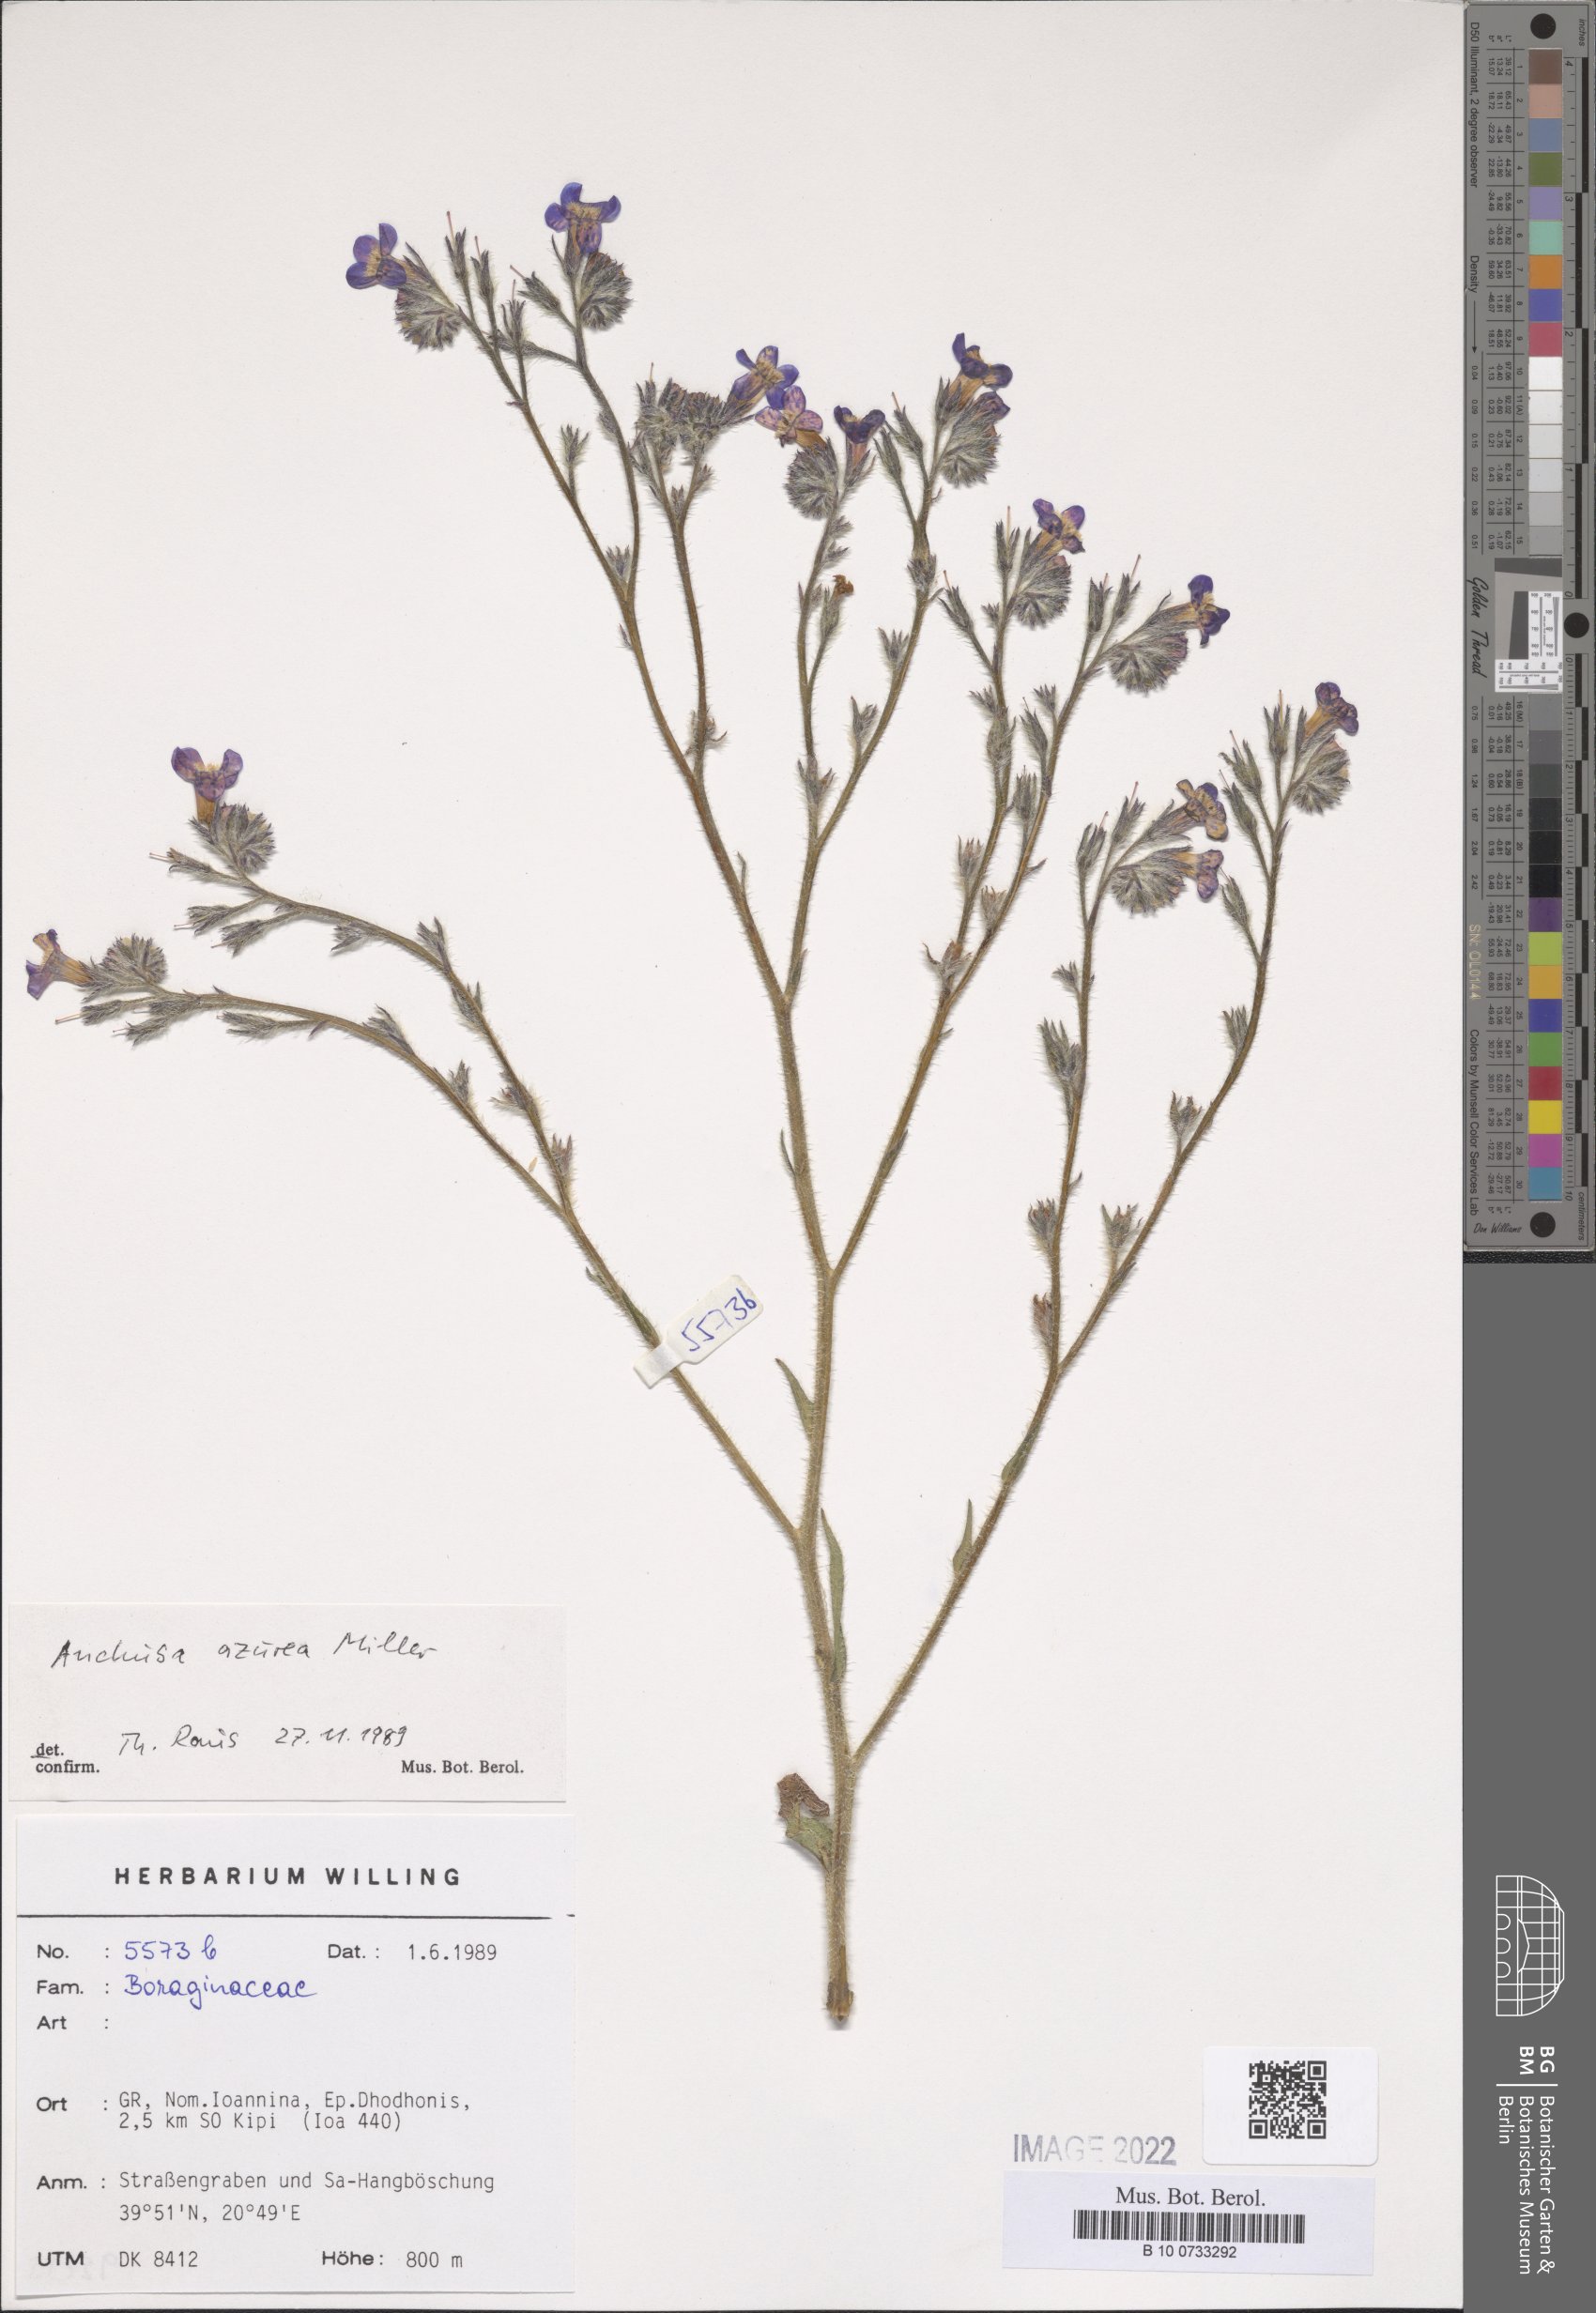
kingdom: Plantae
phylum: Tracheophyta
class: Magnoliopsida
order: Boraginales
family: Boraginaceae
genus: Anchusa
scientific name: Anchusa azurea
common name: Garden anchusa
